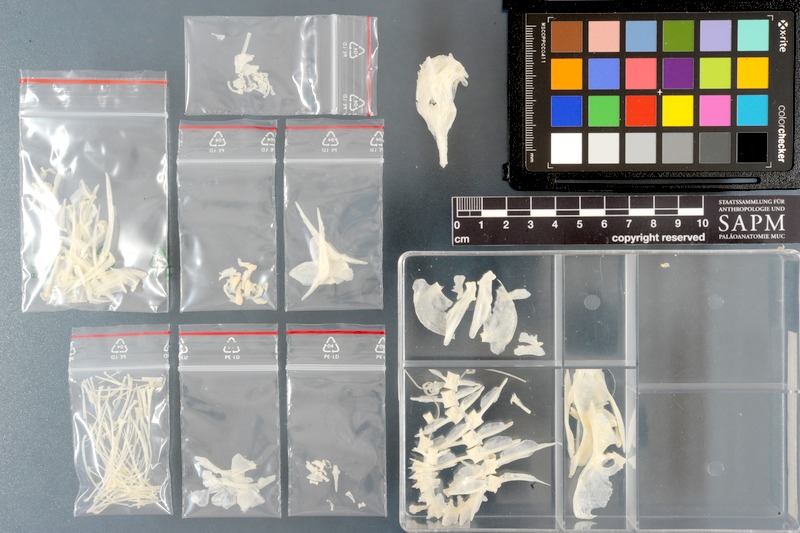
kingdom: Animalia
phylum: Chordata
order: Perciformes
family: Acanthuridae
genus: Zebrasoma
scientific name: Zebrasoma veliferum
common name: Sailfin surgeonfish
